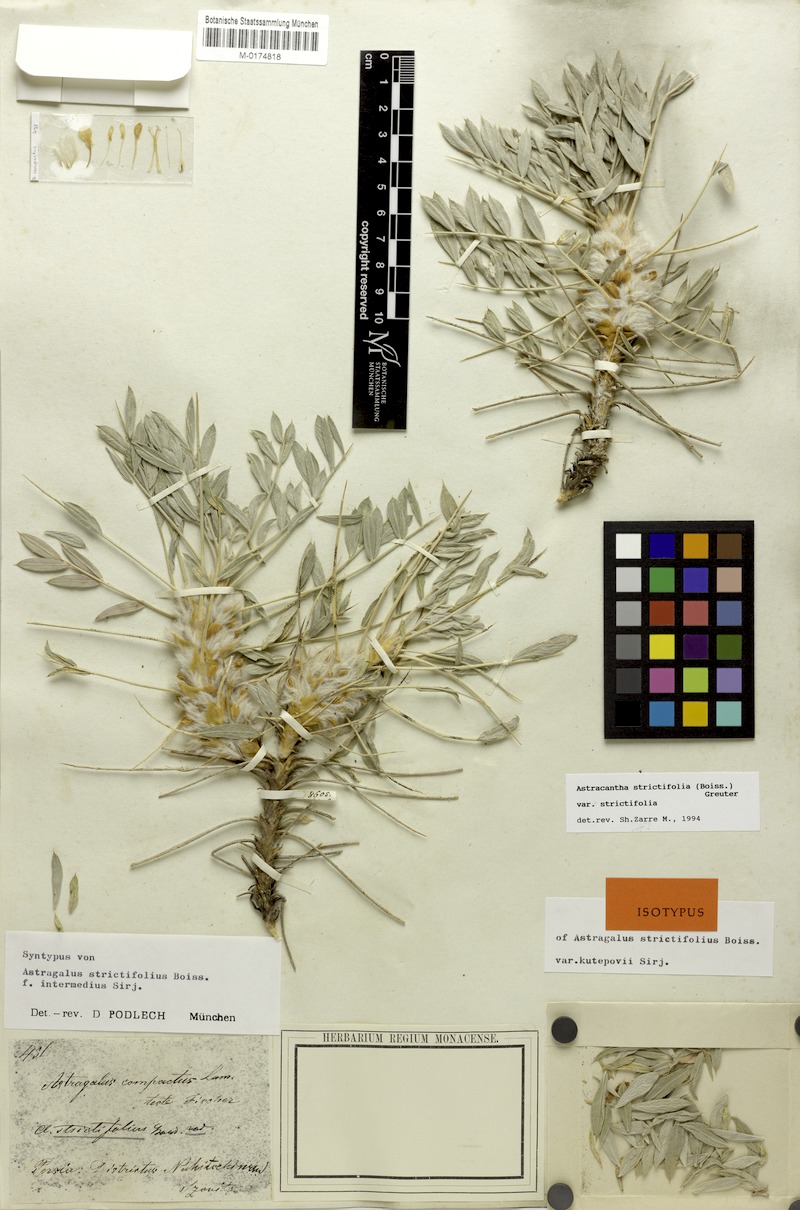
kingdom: Plantae
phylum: Tracheophyta
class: Magnoliopsida
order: Fabales
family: Fabaceae
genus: Astragalus
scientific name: Astragalus compactus
